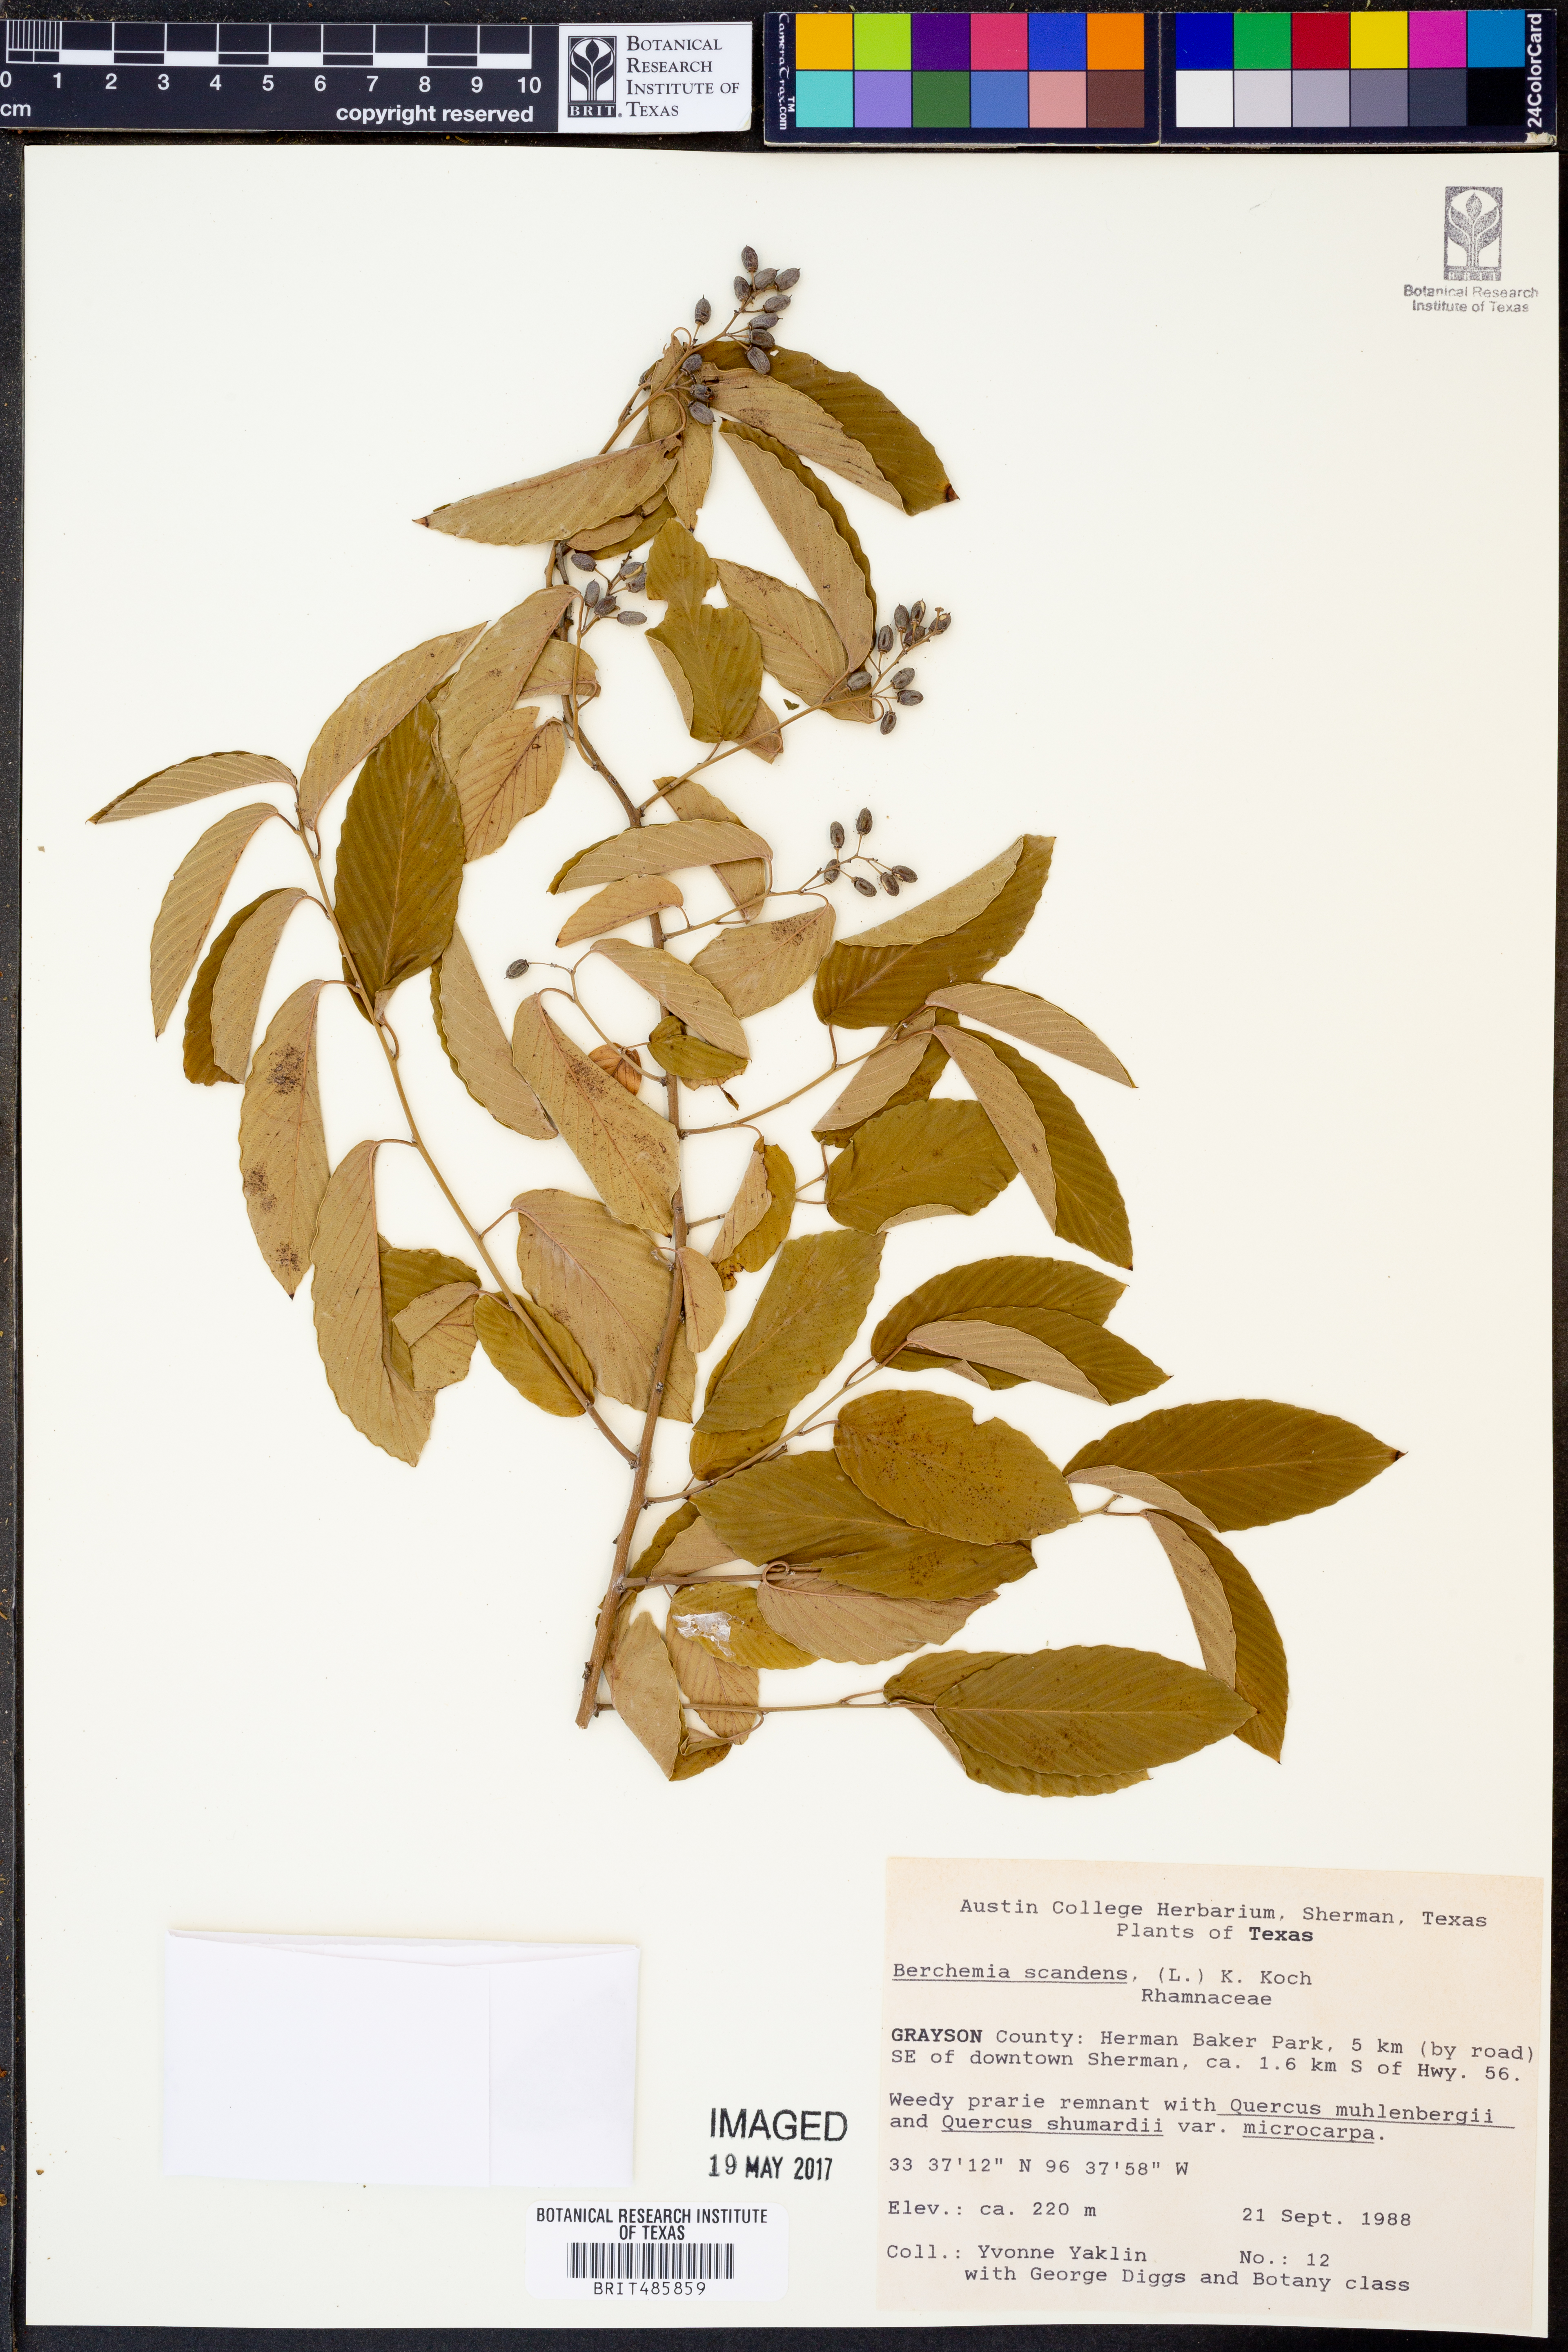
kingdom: Plantae
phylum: Tracheophyta
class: Magnoliopsida
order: Rosales
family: Rhamnaceae
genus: Berchemia
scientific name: Berchemia scandens
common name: Supplejack
